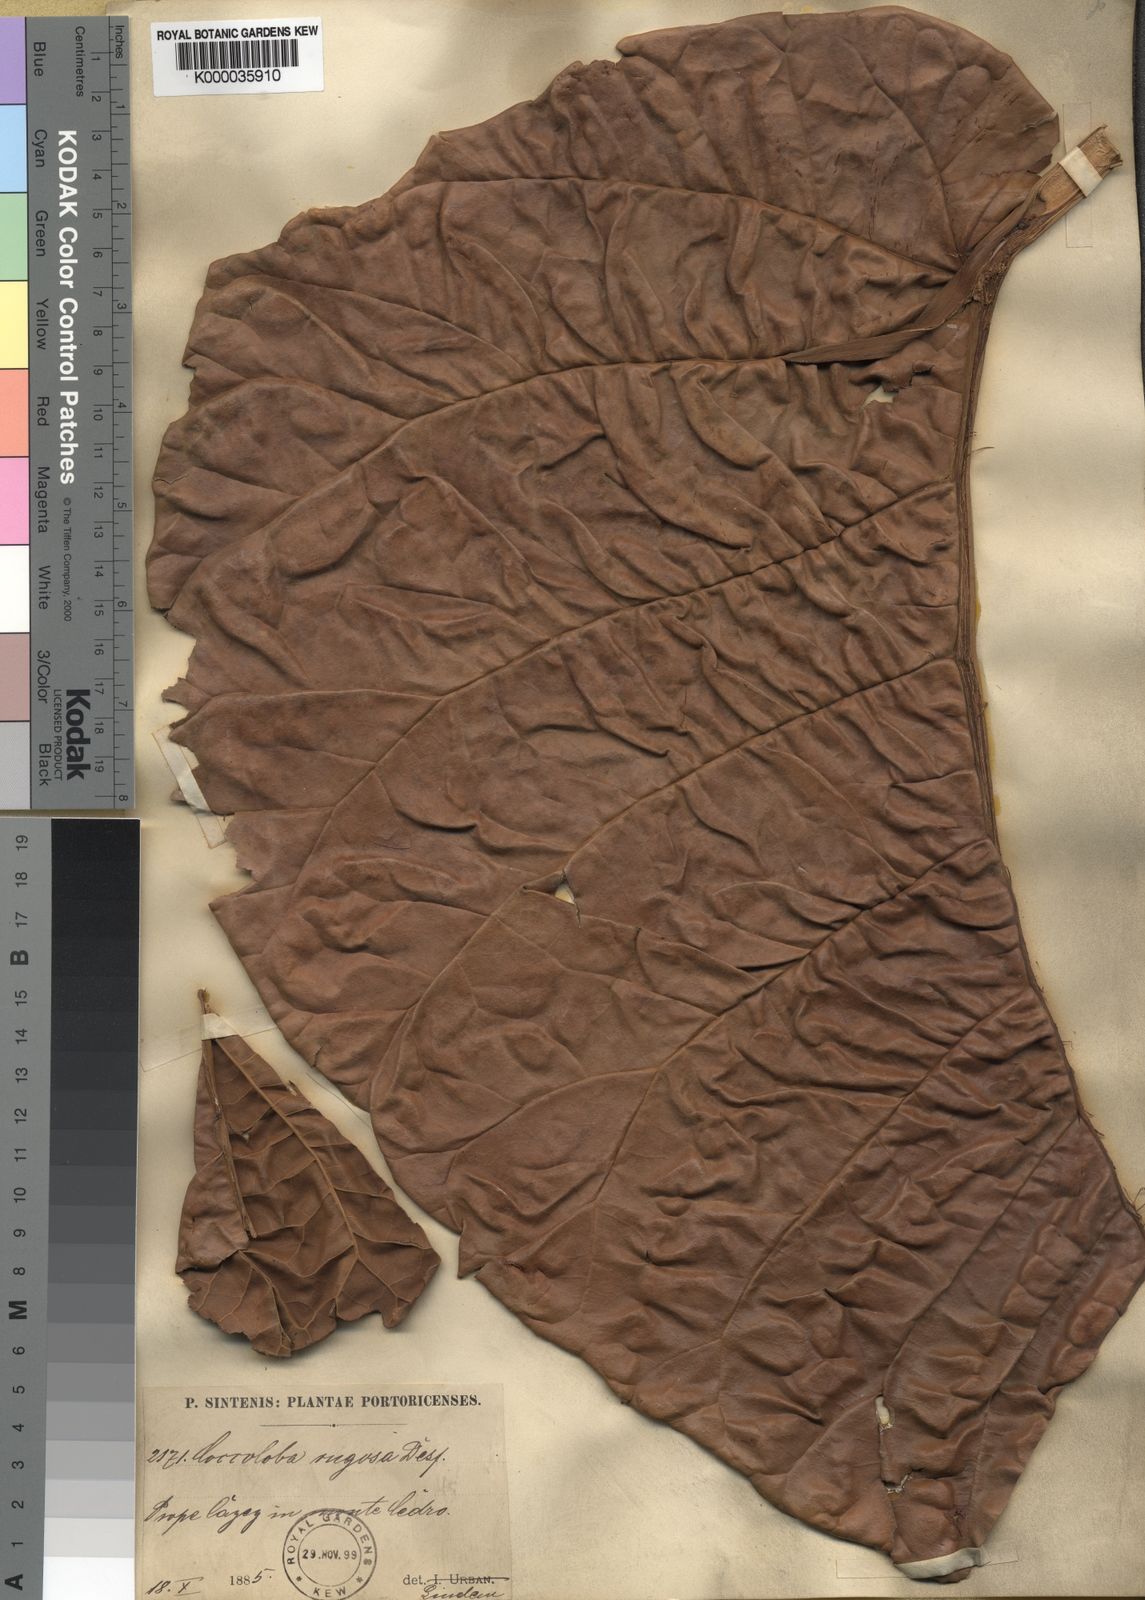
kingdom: Plantae
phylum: Tracheophyta
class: Magnoliopsida
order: Caryophyllales
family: Polygonaceae
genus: Coccoloba
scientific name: Coccoloba rugosa
